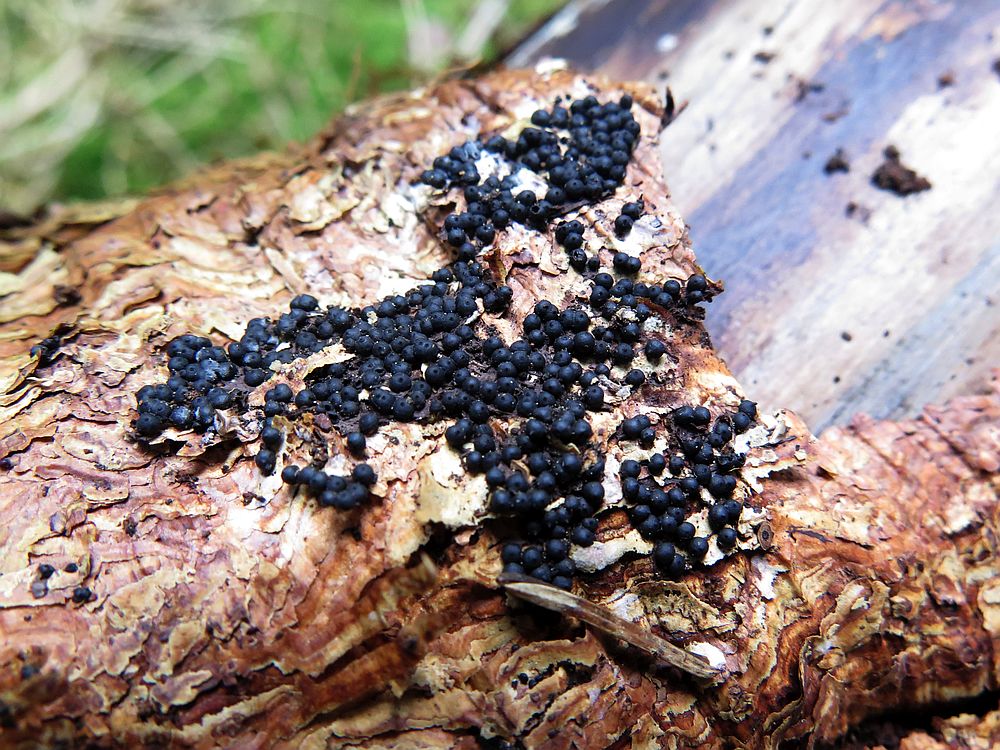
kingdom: Fungi
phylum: Ascomycota
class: Sordariomycetes
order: Xylariales
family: Xylariaceae
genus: Rosellinia
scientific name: Rosellinia
